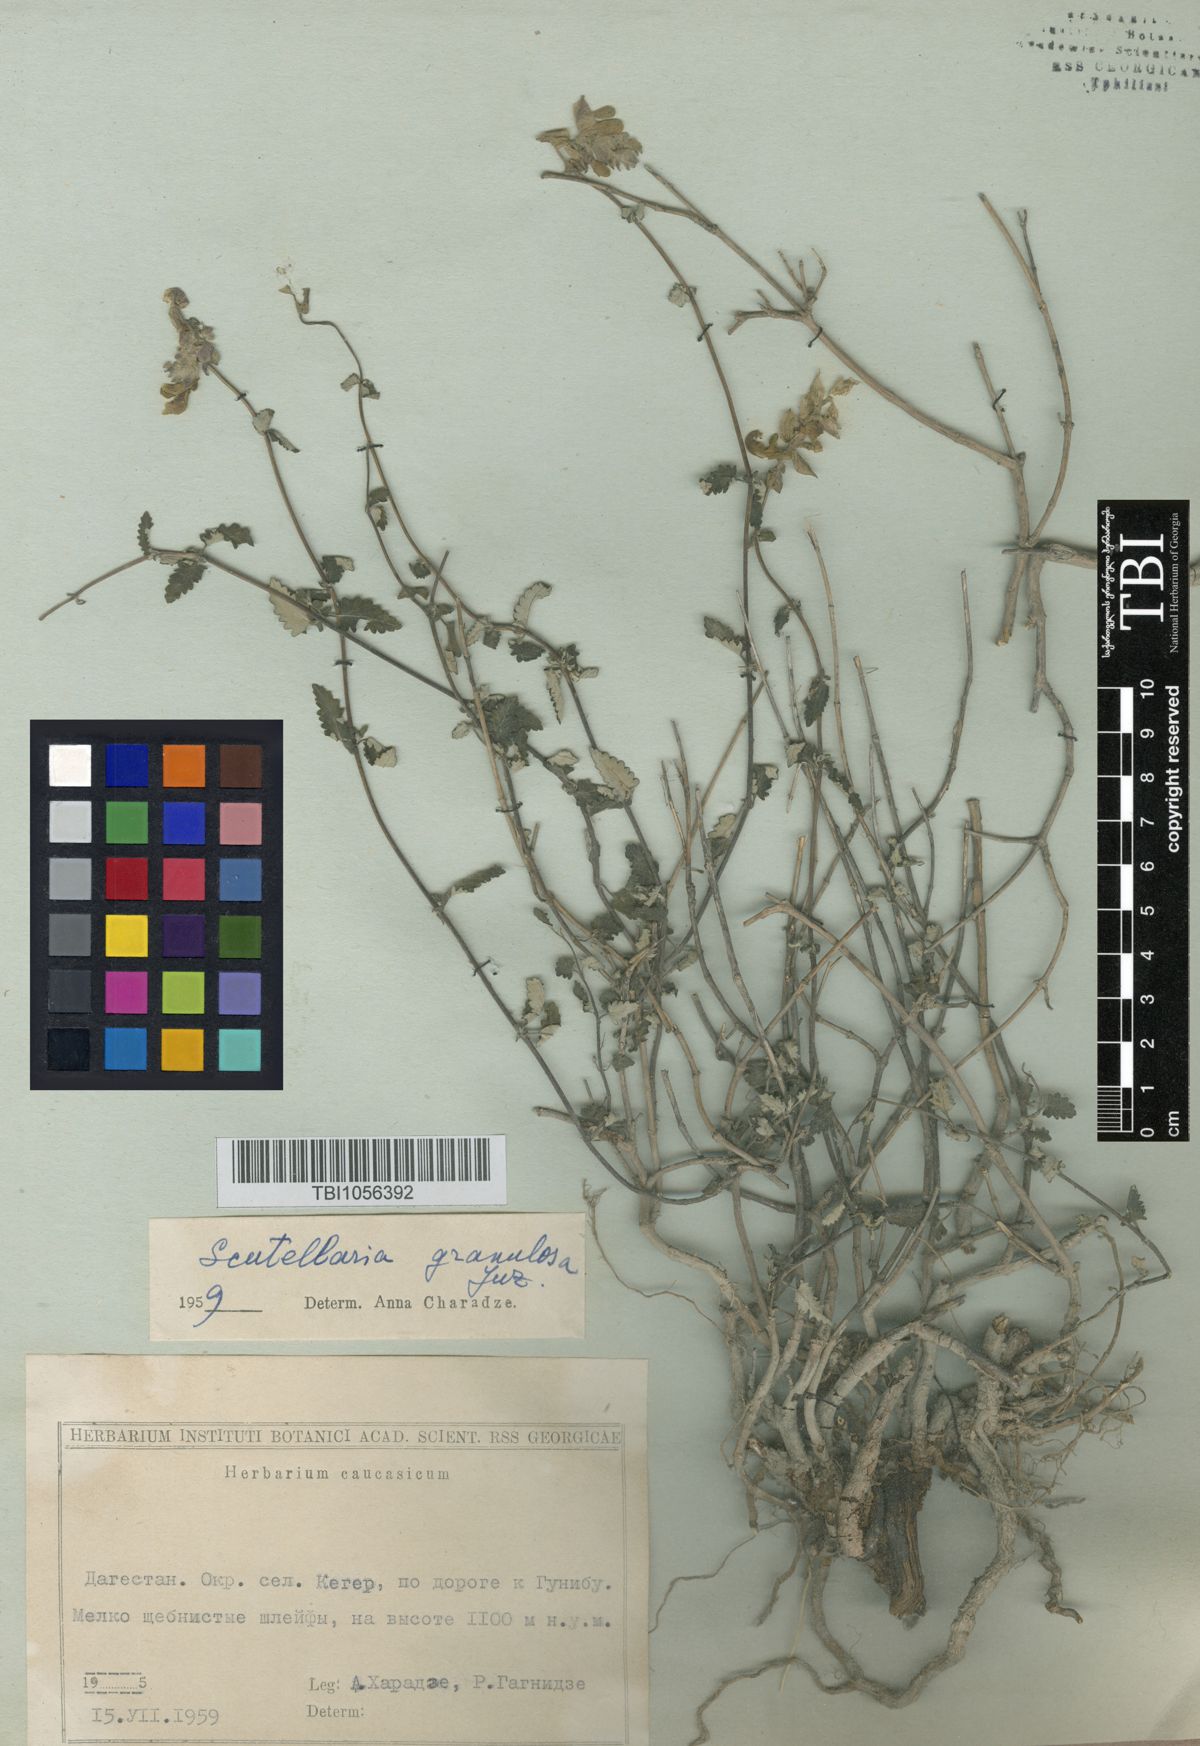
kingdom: Plantae
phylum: Tracheophyta
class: Magnoliopsida
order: Lamiales
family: Lamiaceae
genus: Scutellaria
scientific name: Scutellaria granulosa
